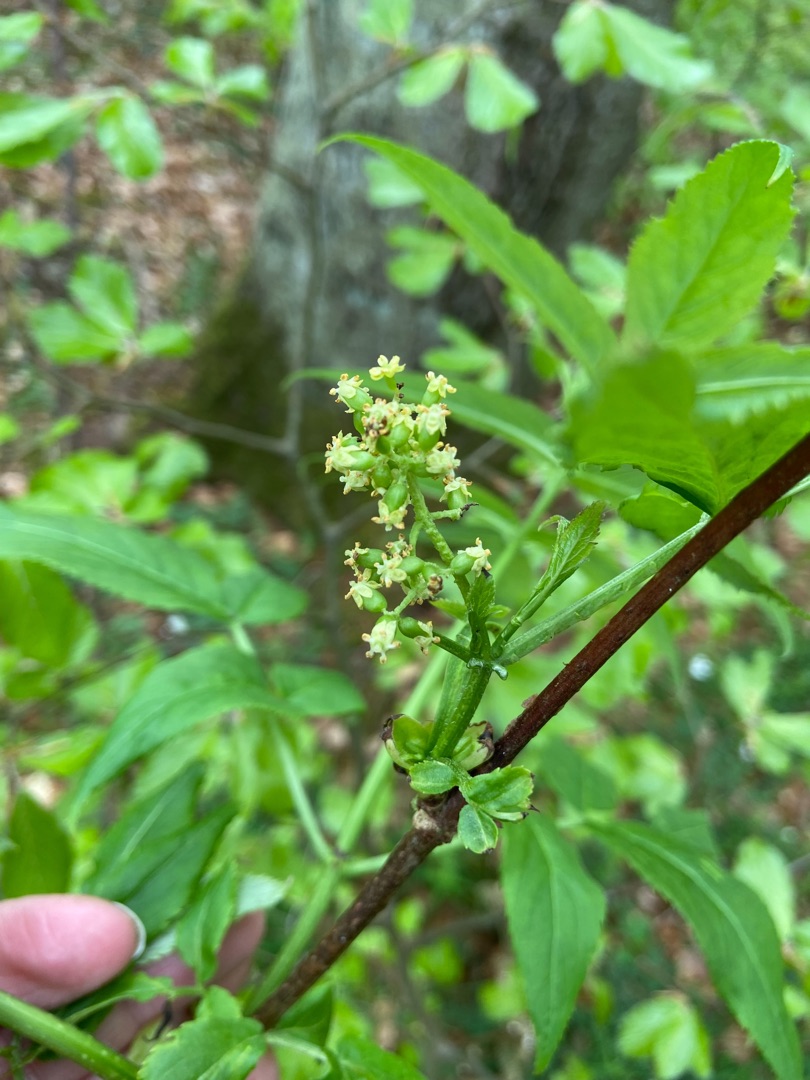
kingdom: Plantae
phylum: Tracheophyta
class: Magnoliopsida
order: Dipsacales
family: Viburnaceae
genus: Sambucus
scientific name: Sambucus racemosa
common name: Drue-hyld
